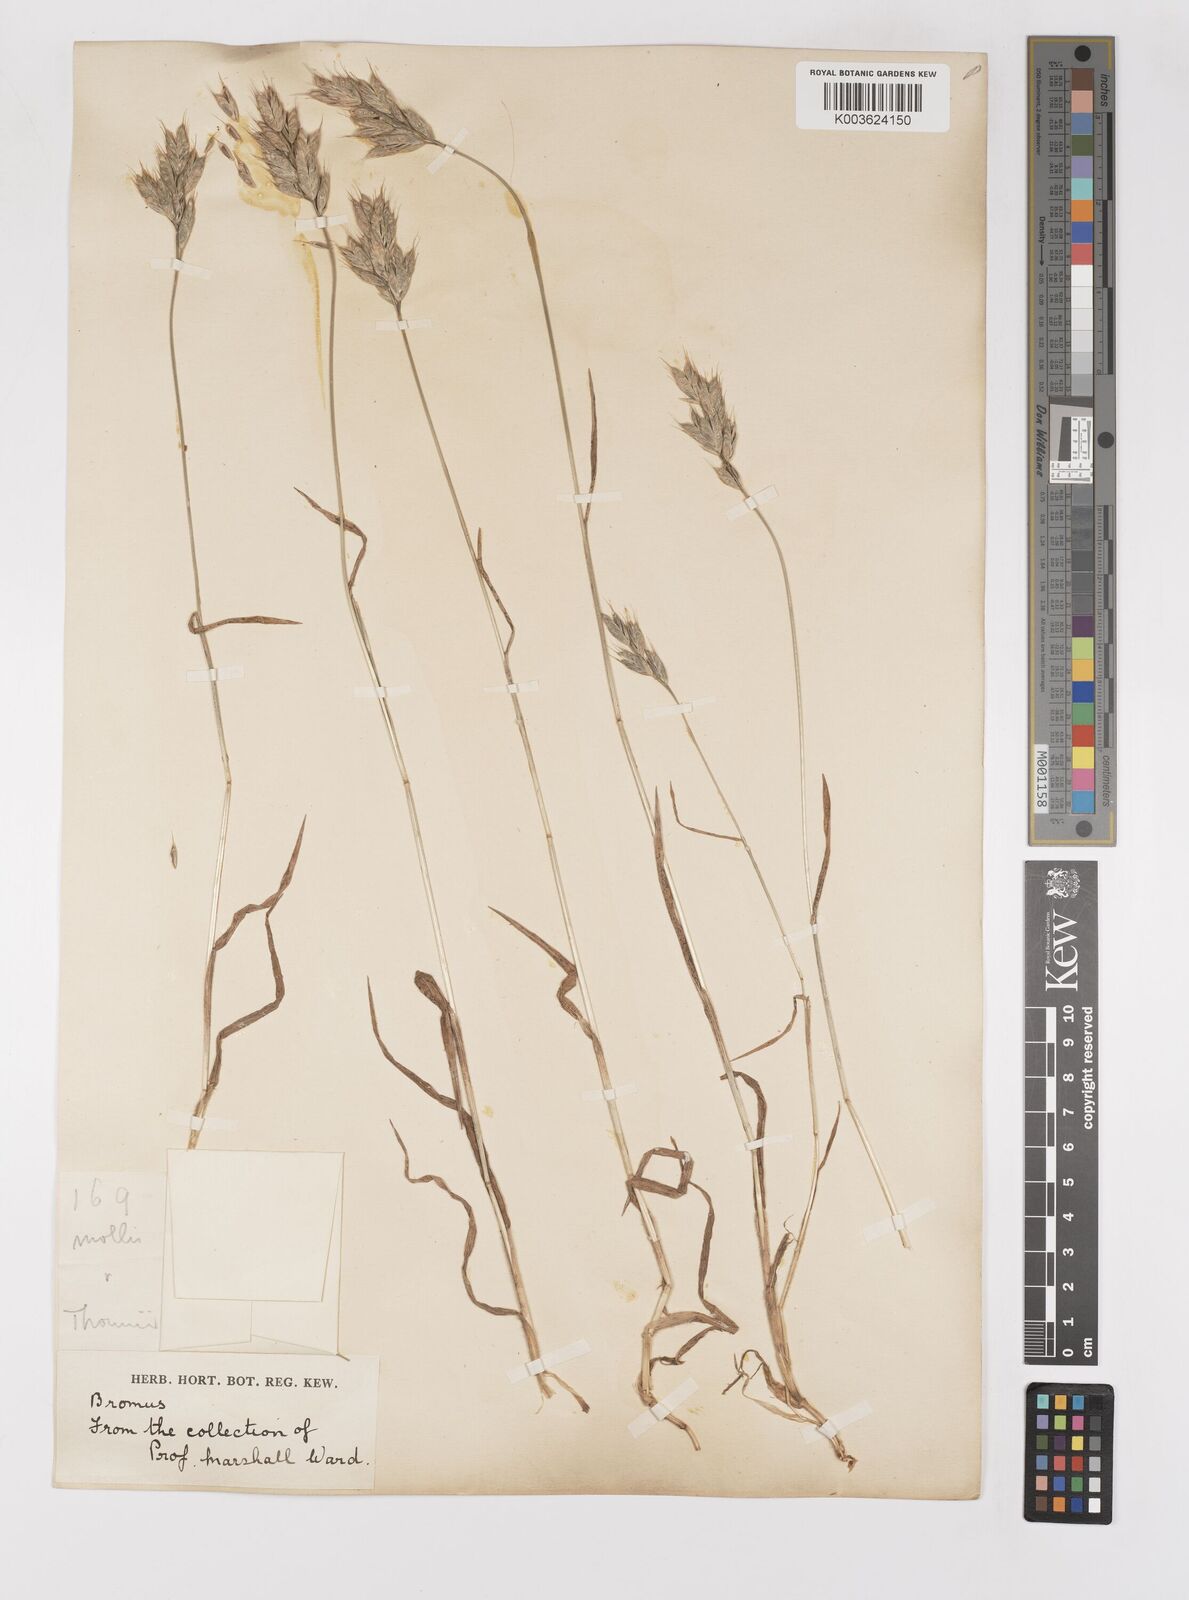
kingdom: Plantae
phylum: Tracheophyta
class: Liliopsida
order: Poales
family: Poaceae
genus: Bromus
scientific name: Bromus hordeaceus
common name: Soft brome
